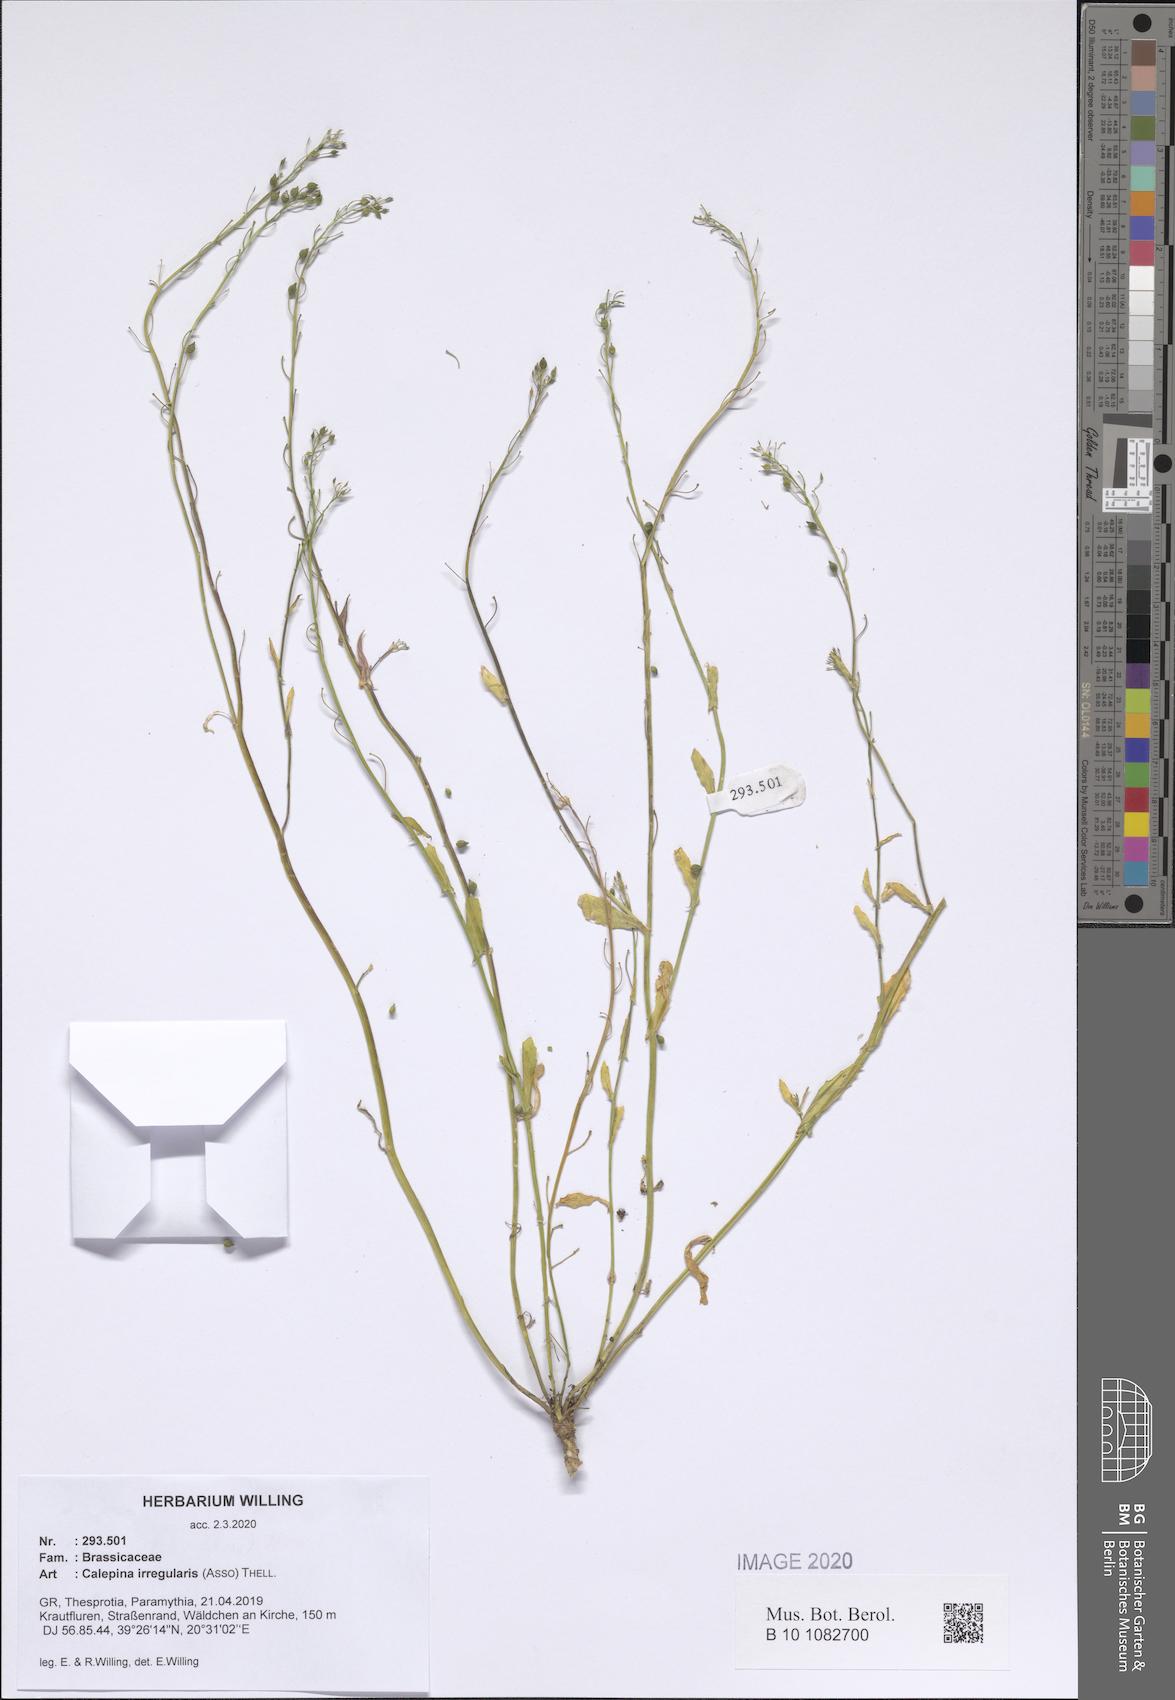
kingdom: Plantae
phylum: Tracheophyta
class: Magnoliopsida
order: Brassicales
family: Brassicaceae
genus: Calepina
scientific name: Calepina irregularis
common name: White ballmustard
